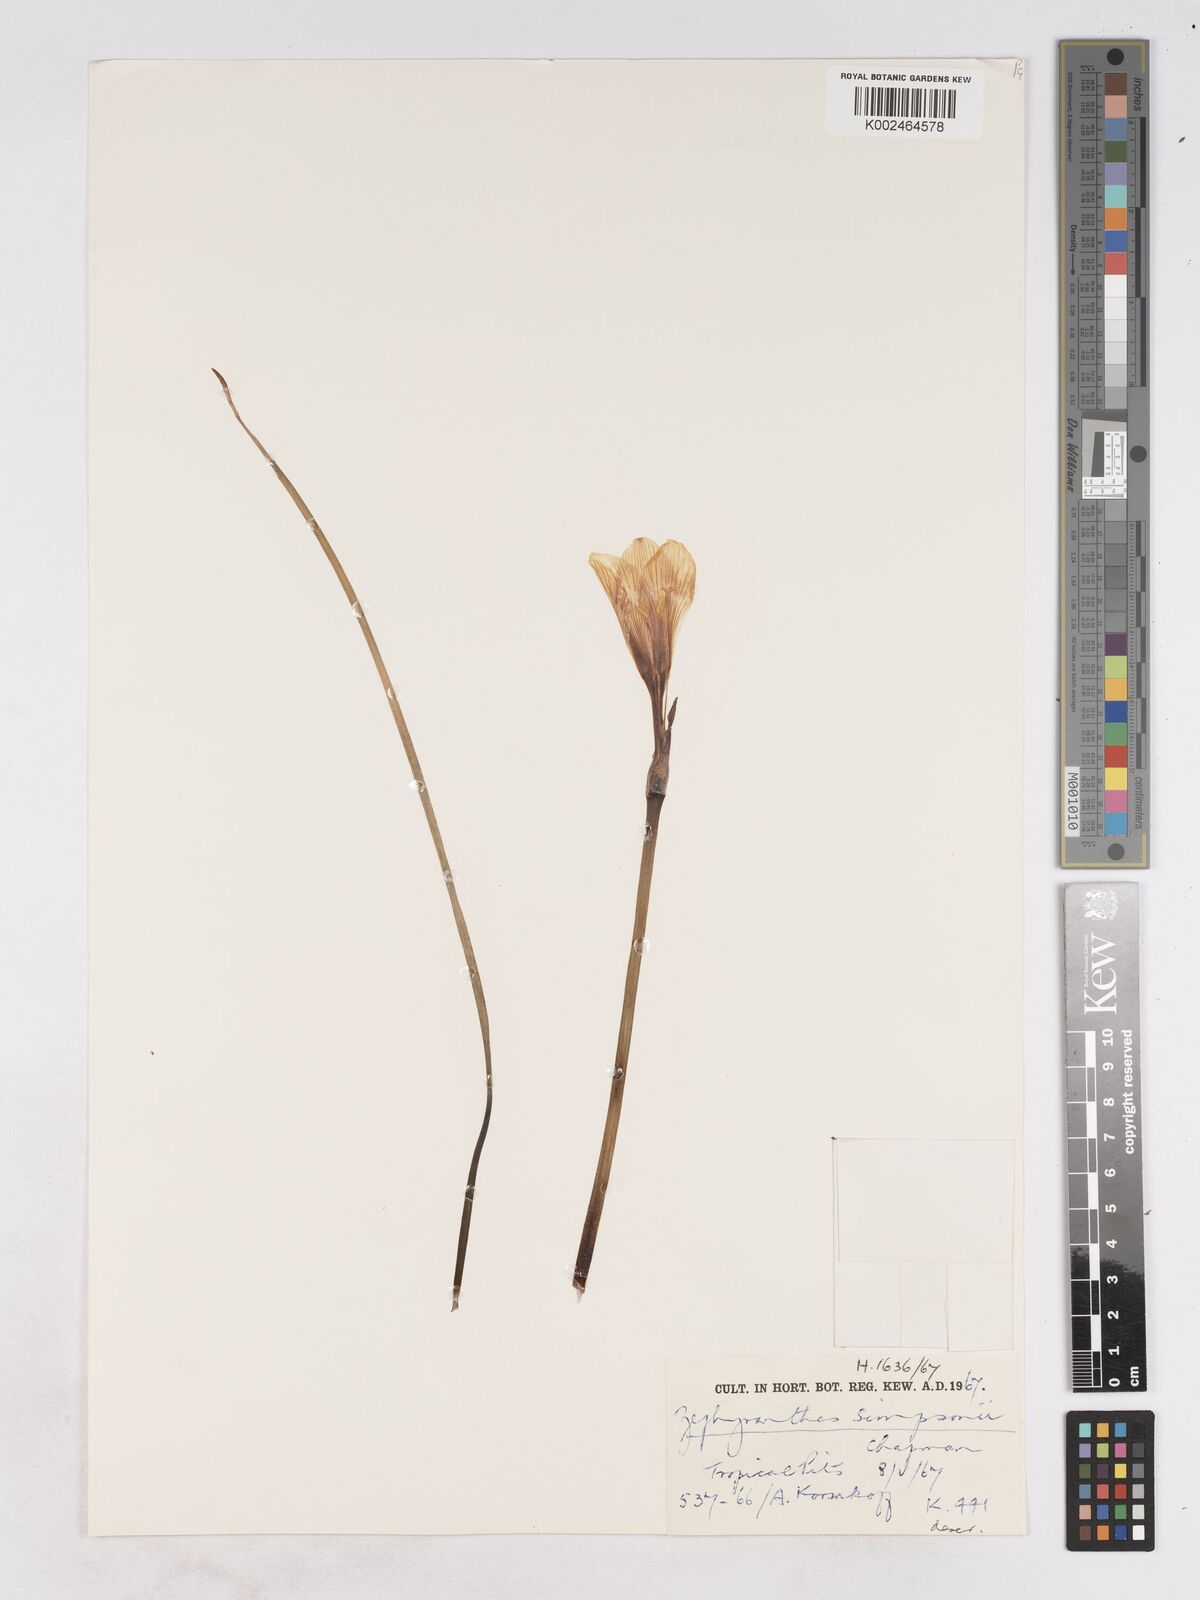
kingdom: Plantae
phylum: Tracheophyta
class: Liliopsida
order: Asparagales
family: Amaryllidaceae
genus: Zephyranthes
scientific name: Zephyranthes simpsonii
